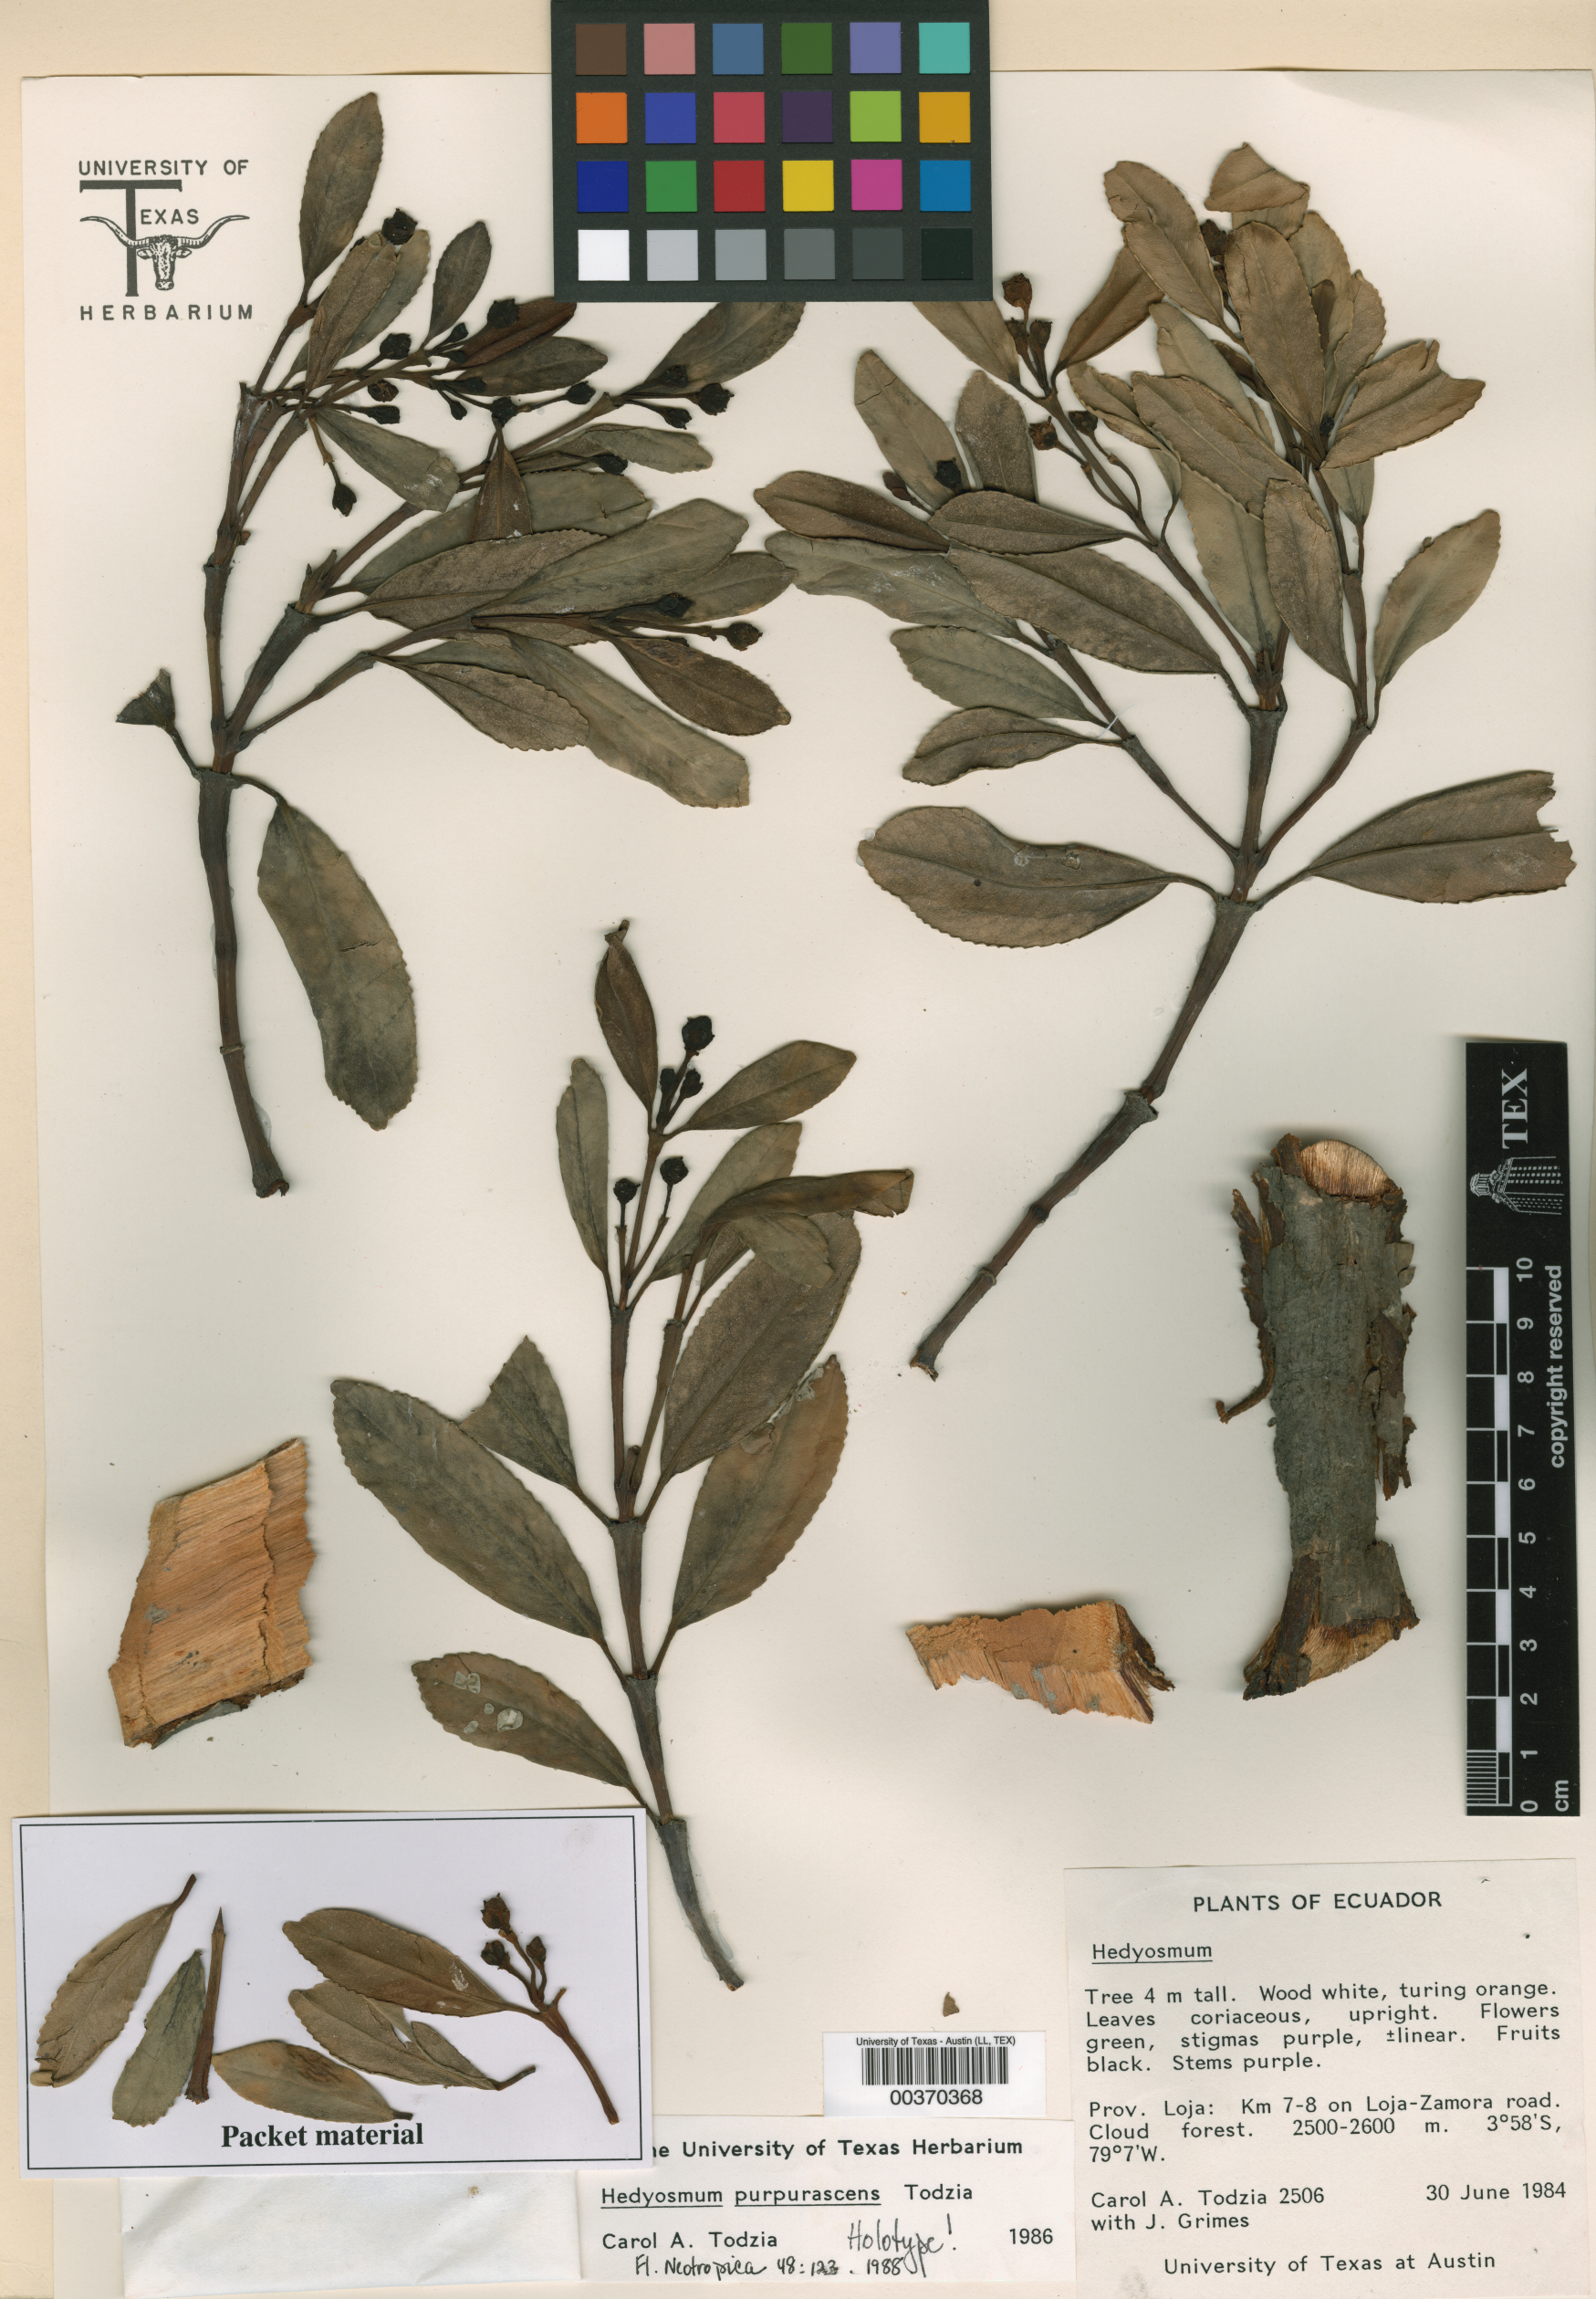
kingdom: Plantae
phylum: Tracheophyta
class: Magnoliopsida
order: Chloranthales
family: Chloranthaceae
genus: Hedyosmum
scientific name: Hedyosmum purpurascens
